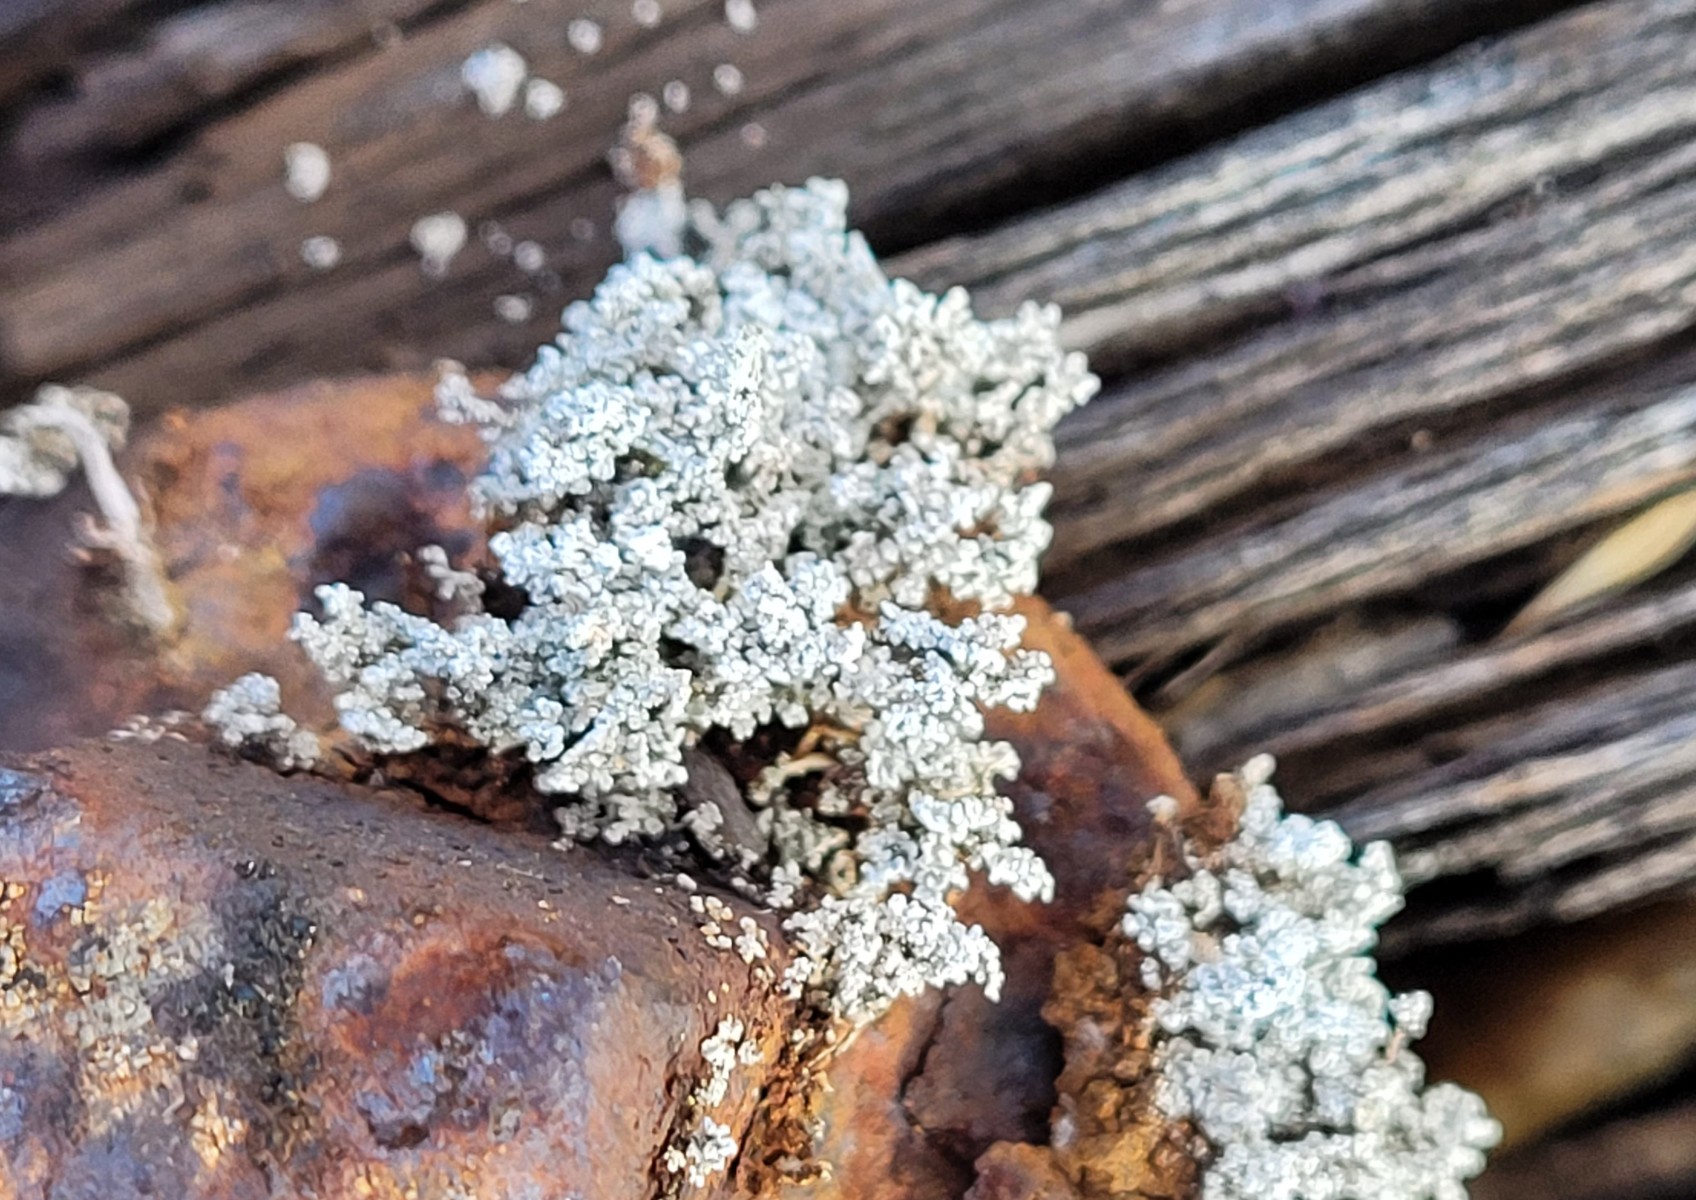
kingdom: Fungi
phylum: Ascomycota
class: Lecanoromycetes
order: Lecanorales
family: Stereocaulaceae
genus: Stereocaulon
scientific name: Stereocaulon vesuvianum
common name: skjold-korallav
